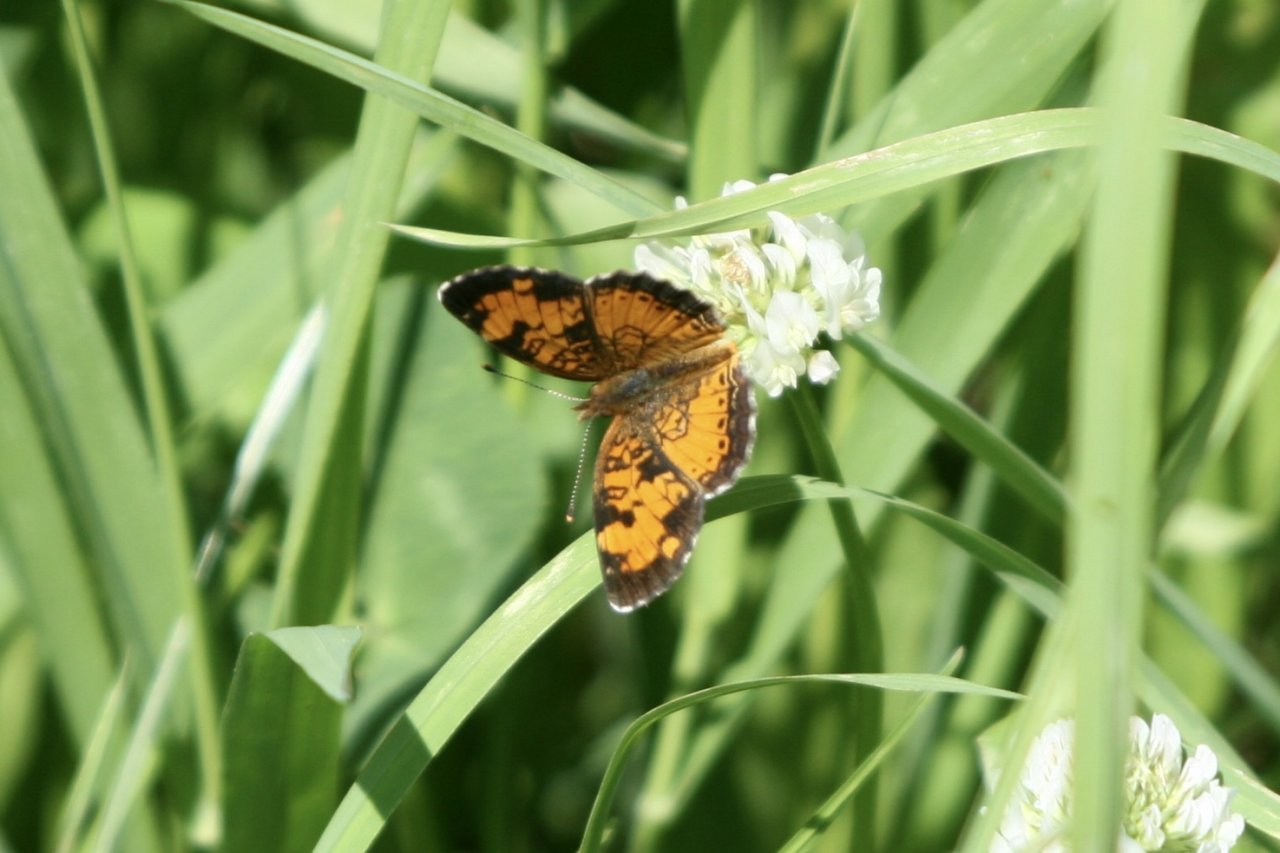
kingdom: Animalia
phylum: Arthropoda
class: Insecta
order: Lepidoptera
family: Nymphalidae
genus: Phyciodes
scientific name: Phyciodes tharos
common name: Northern Crescent
